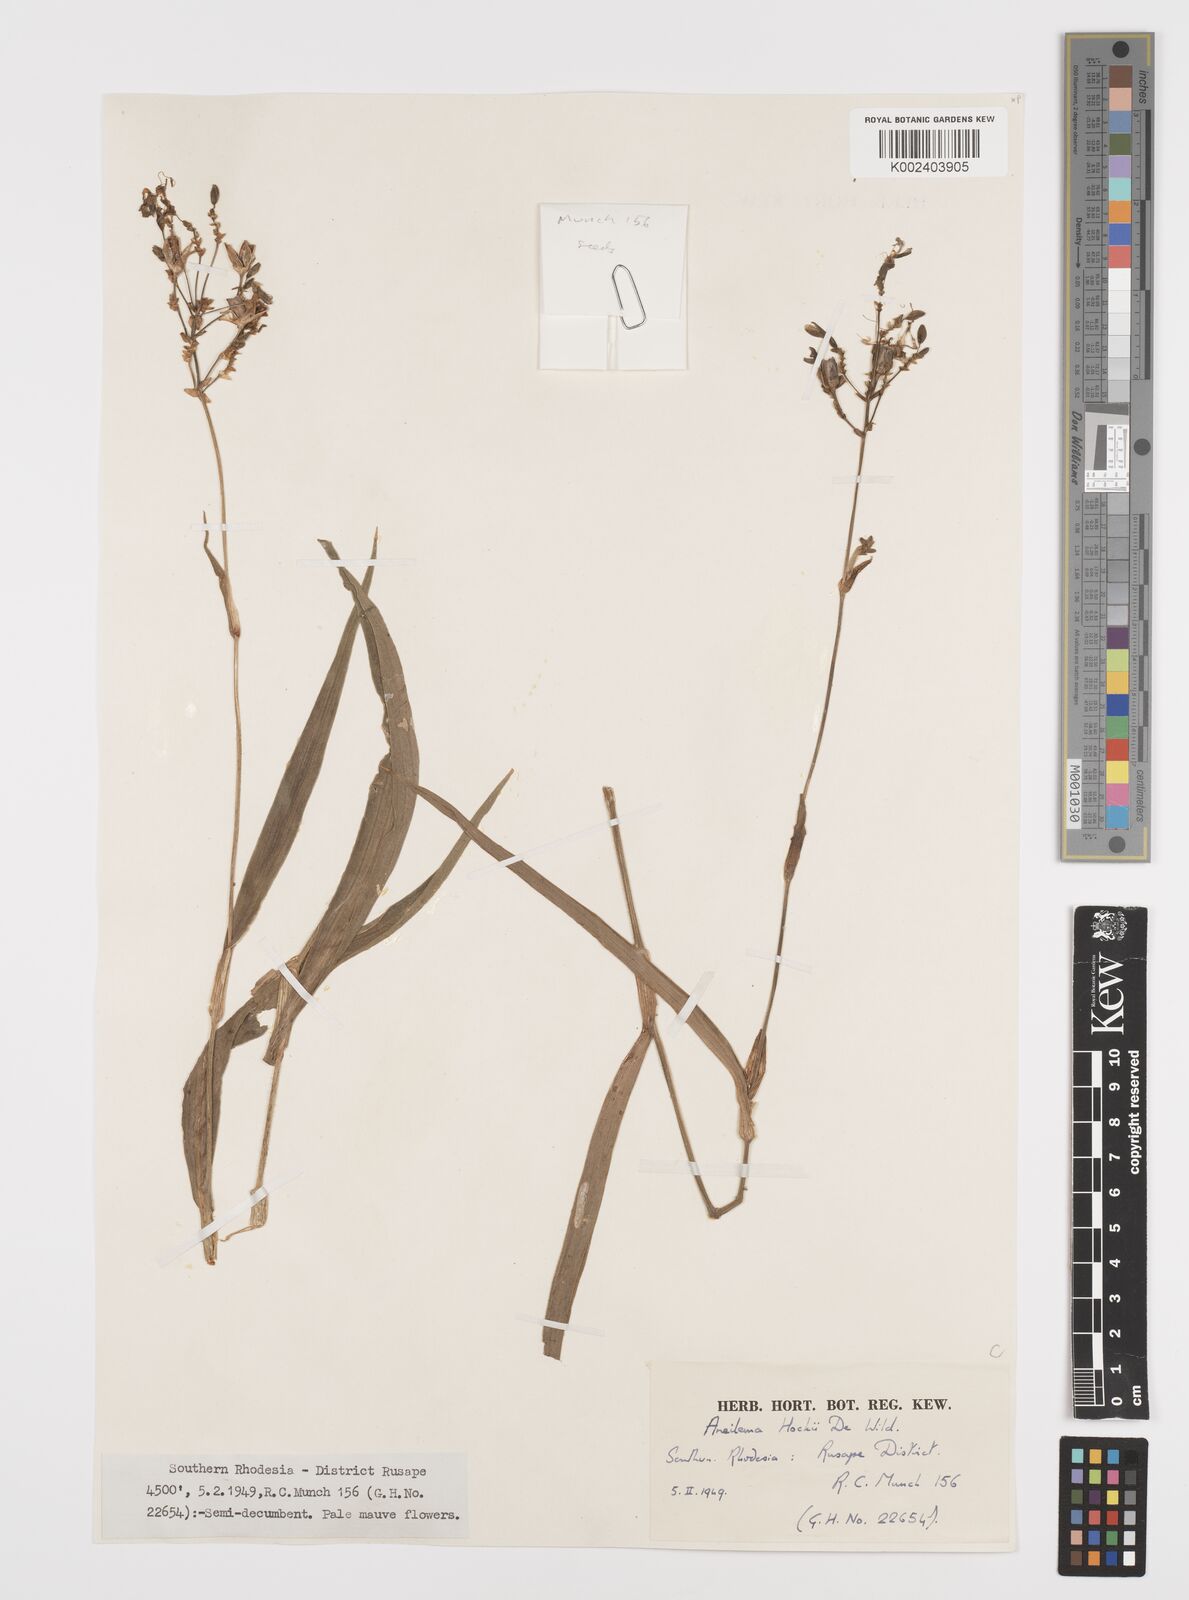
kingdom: Plantae
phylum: Tracheophyta
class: Liliopsida
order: Commelinales
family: Commelinaceae
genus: Aneilema
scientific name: Aneilema hockii
